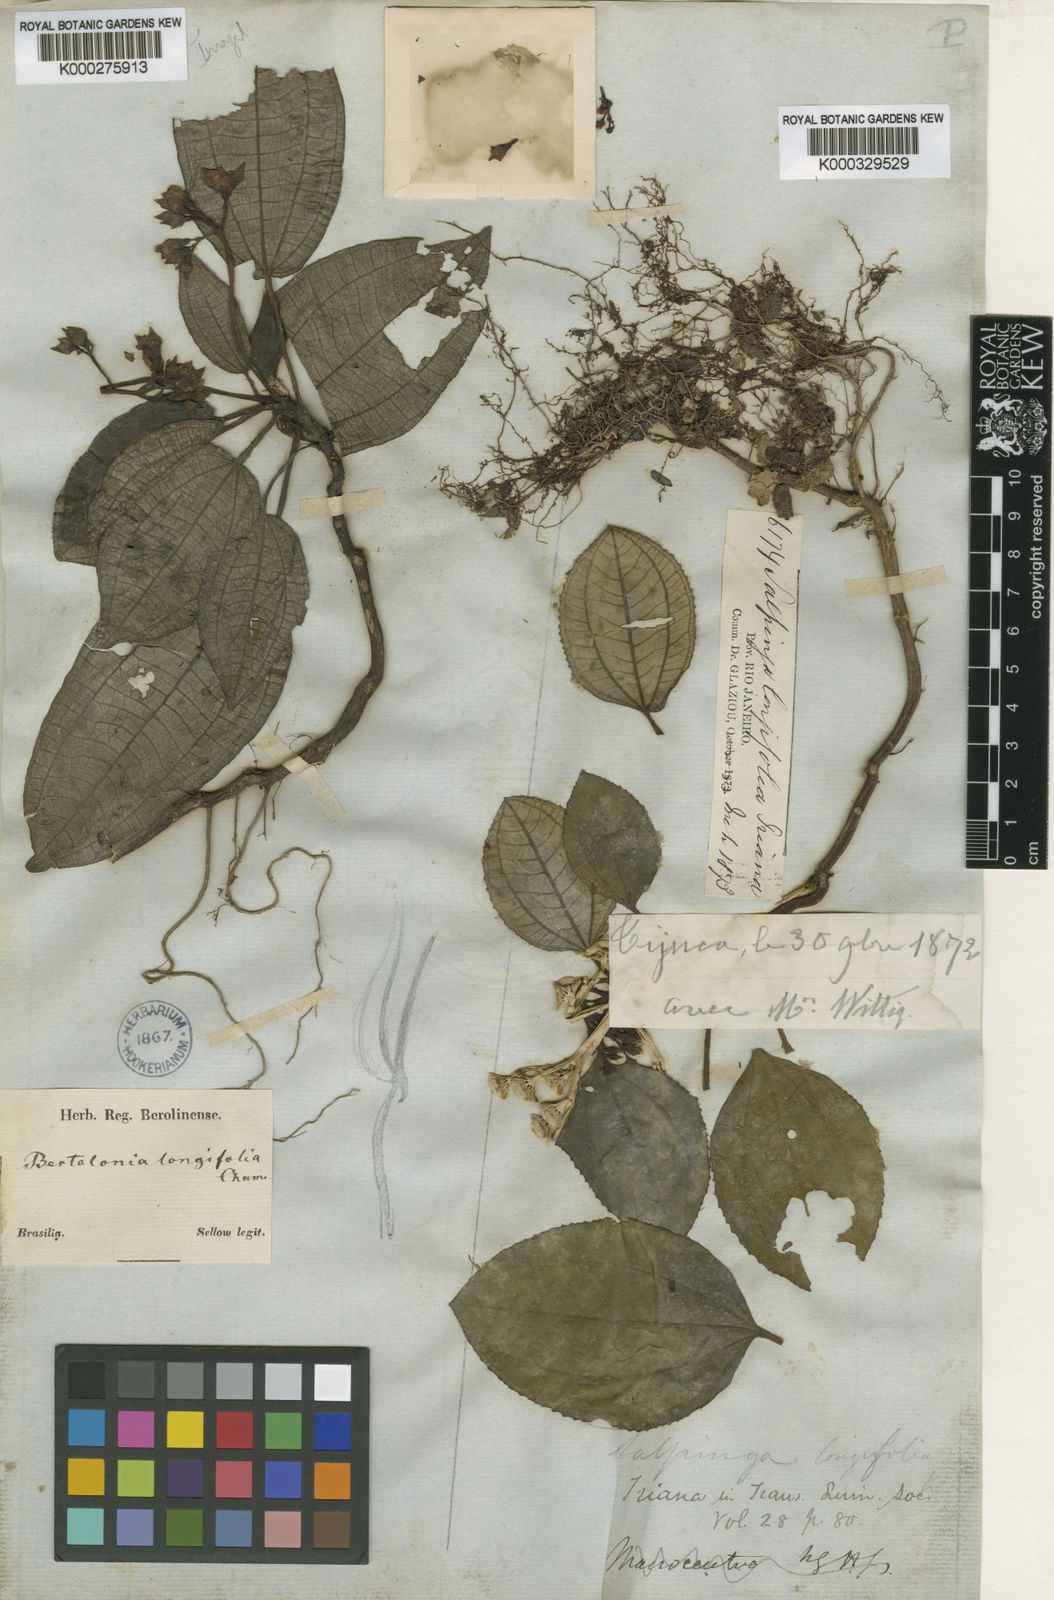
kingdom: Plantae
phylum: Tracheophyta
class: Magnoliopsida
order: Myrtales
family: Melastomataceae
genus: Salpinga
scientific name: Salpinga longifolia
